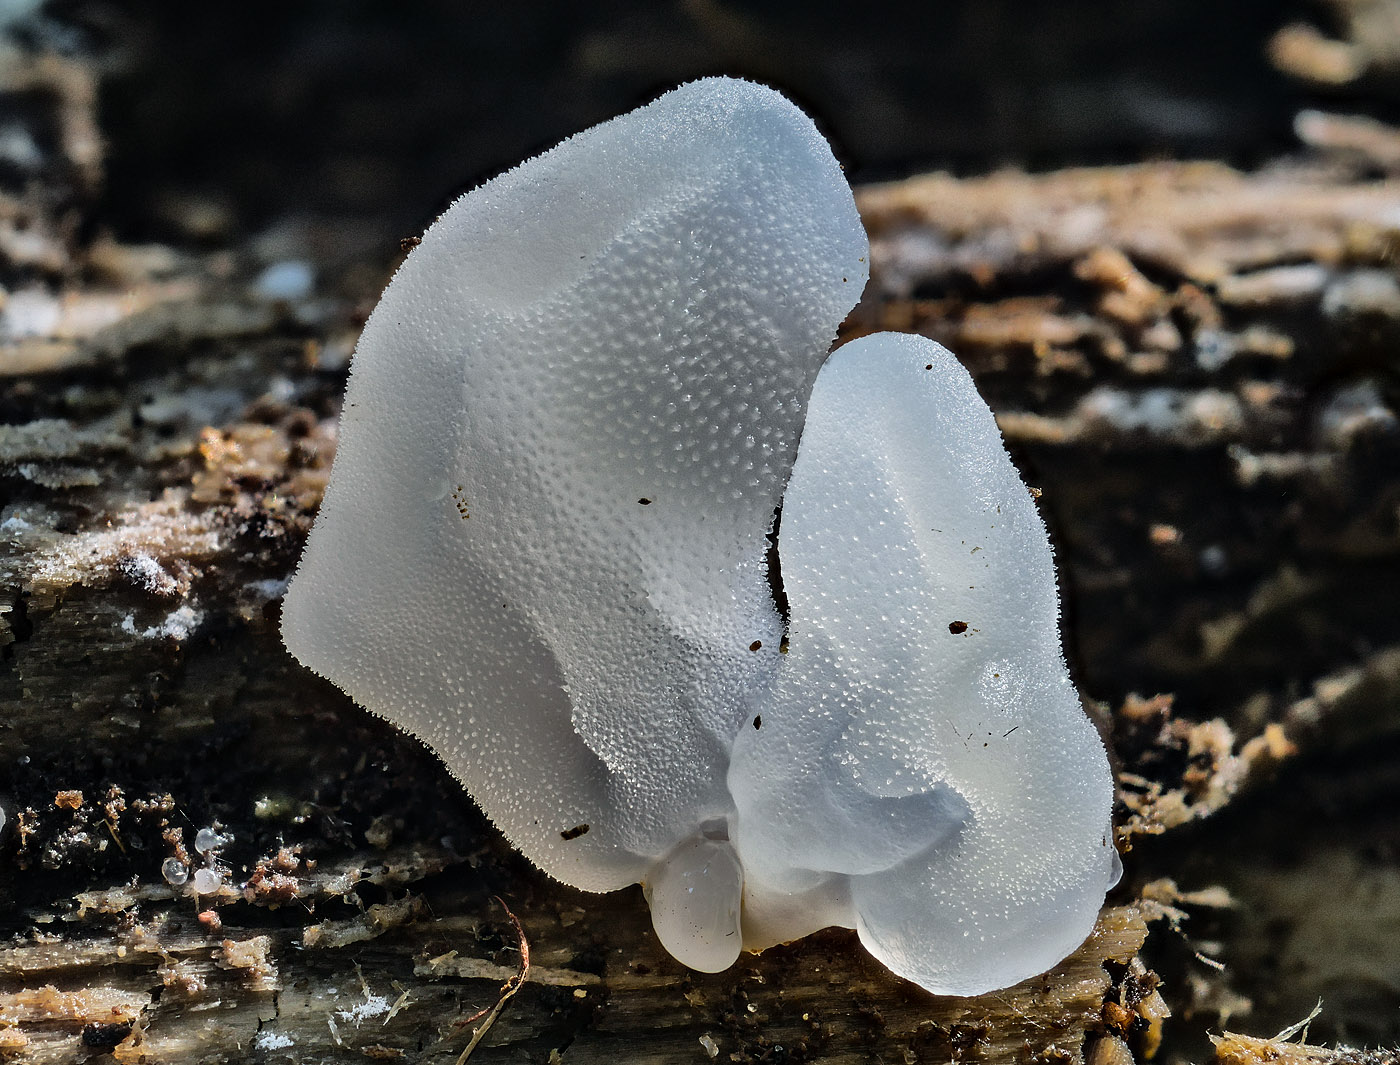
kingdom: Fungi
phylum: Basidiomycota
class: Agaricomycetes
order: Auriculariales
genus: Pseudohydnum
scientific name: Pseudohydnum gelatinosum
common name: bævretand
